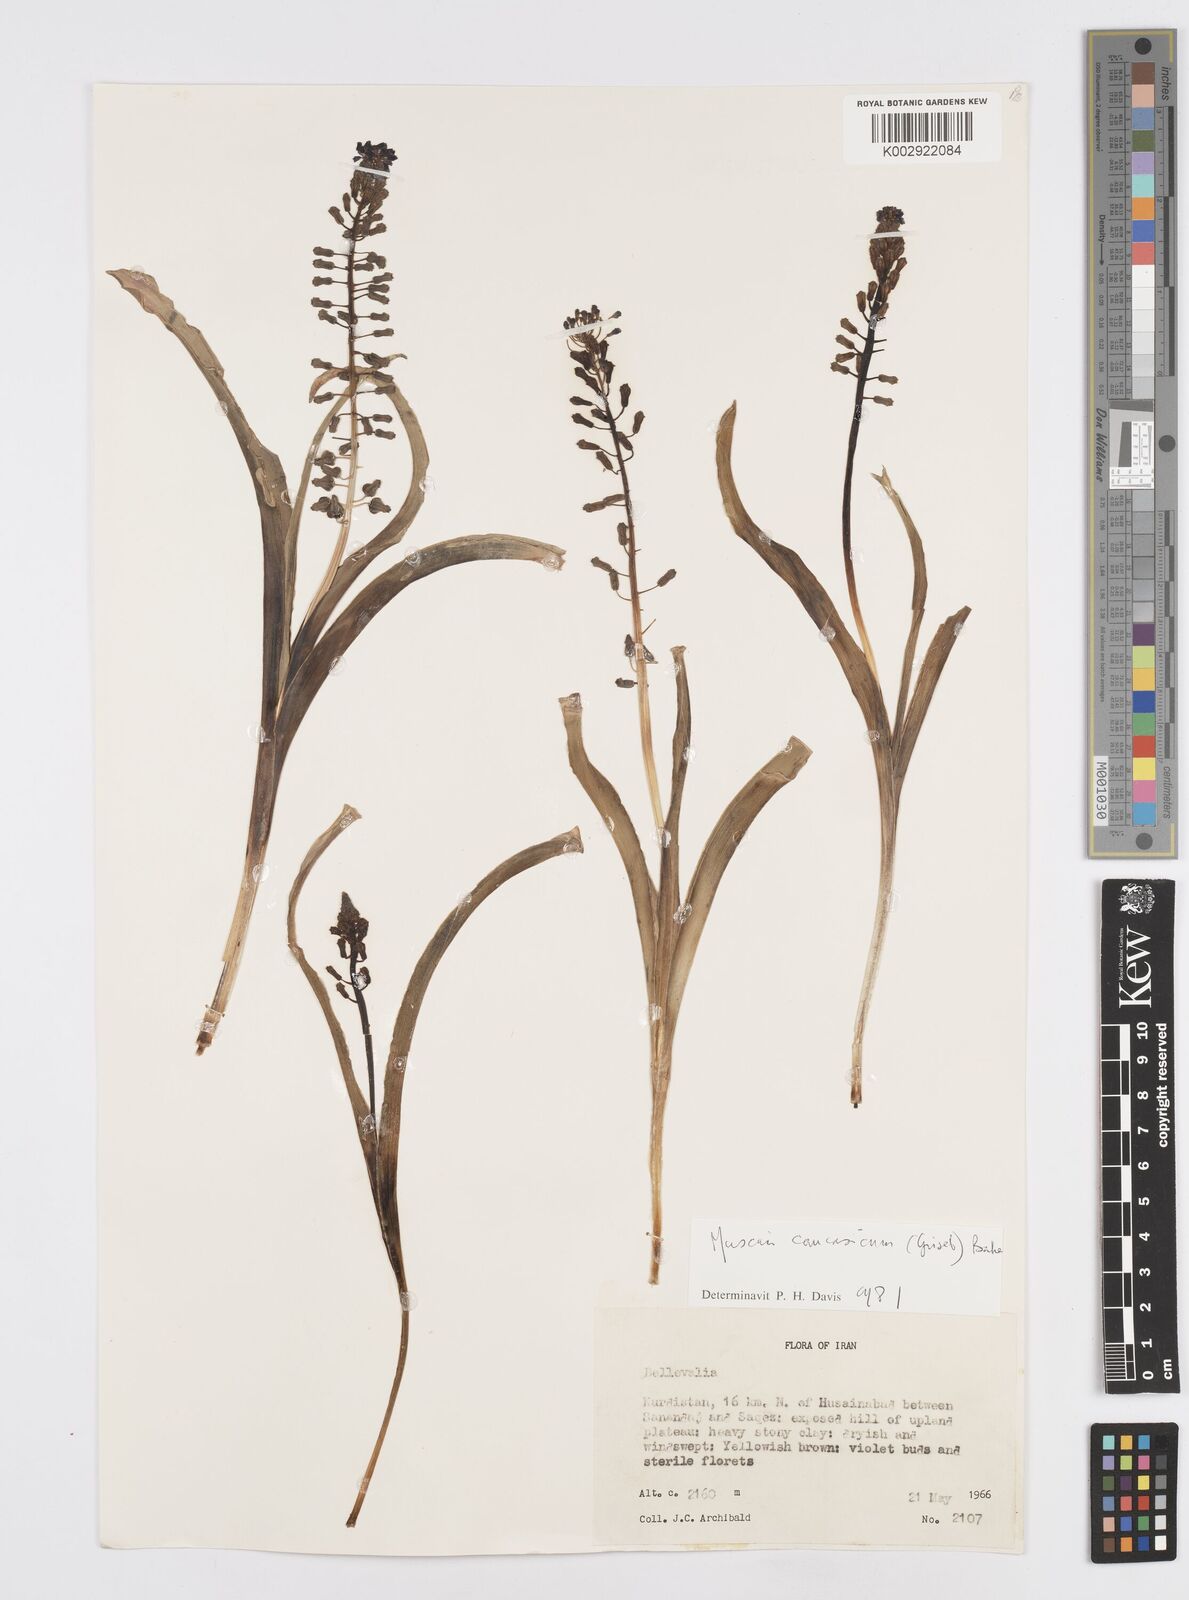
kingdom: Plantae
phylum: Tracheophyta
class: Liliopsida
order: Asparagales
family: Asparagaceae
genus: Muscari
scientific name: Muscari caucasicum
